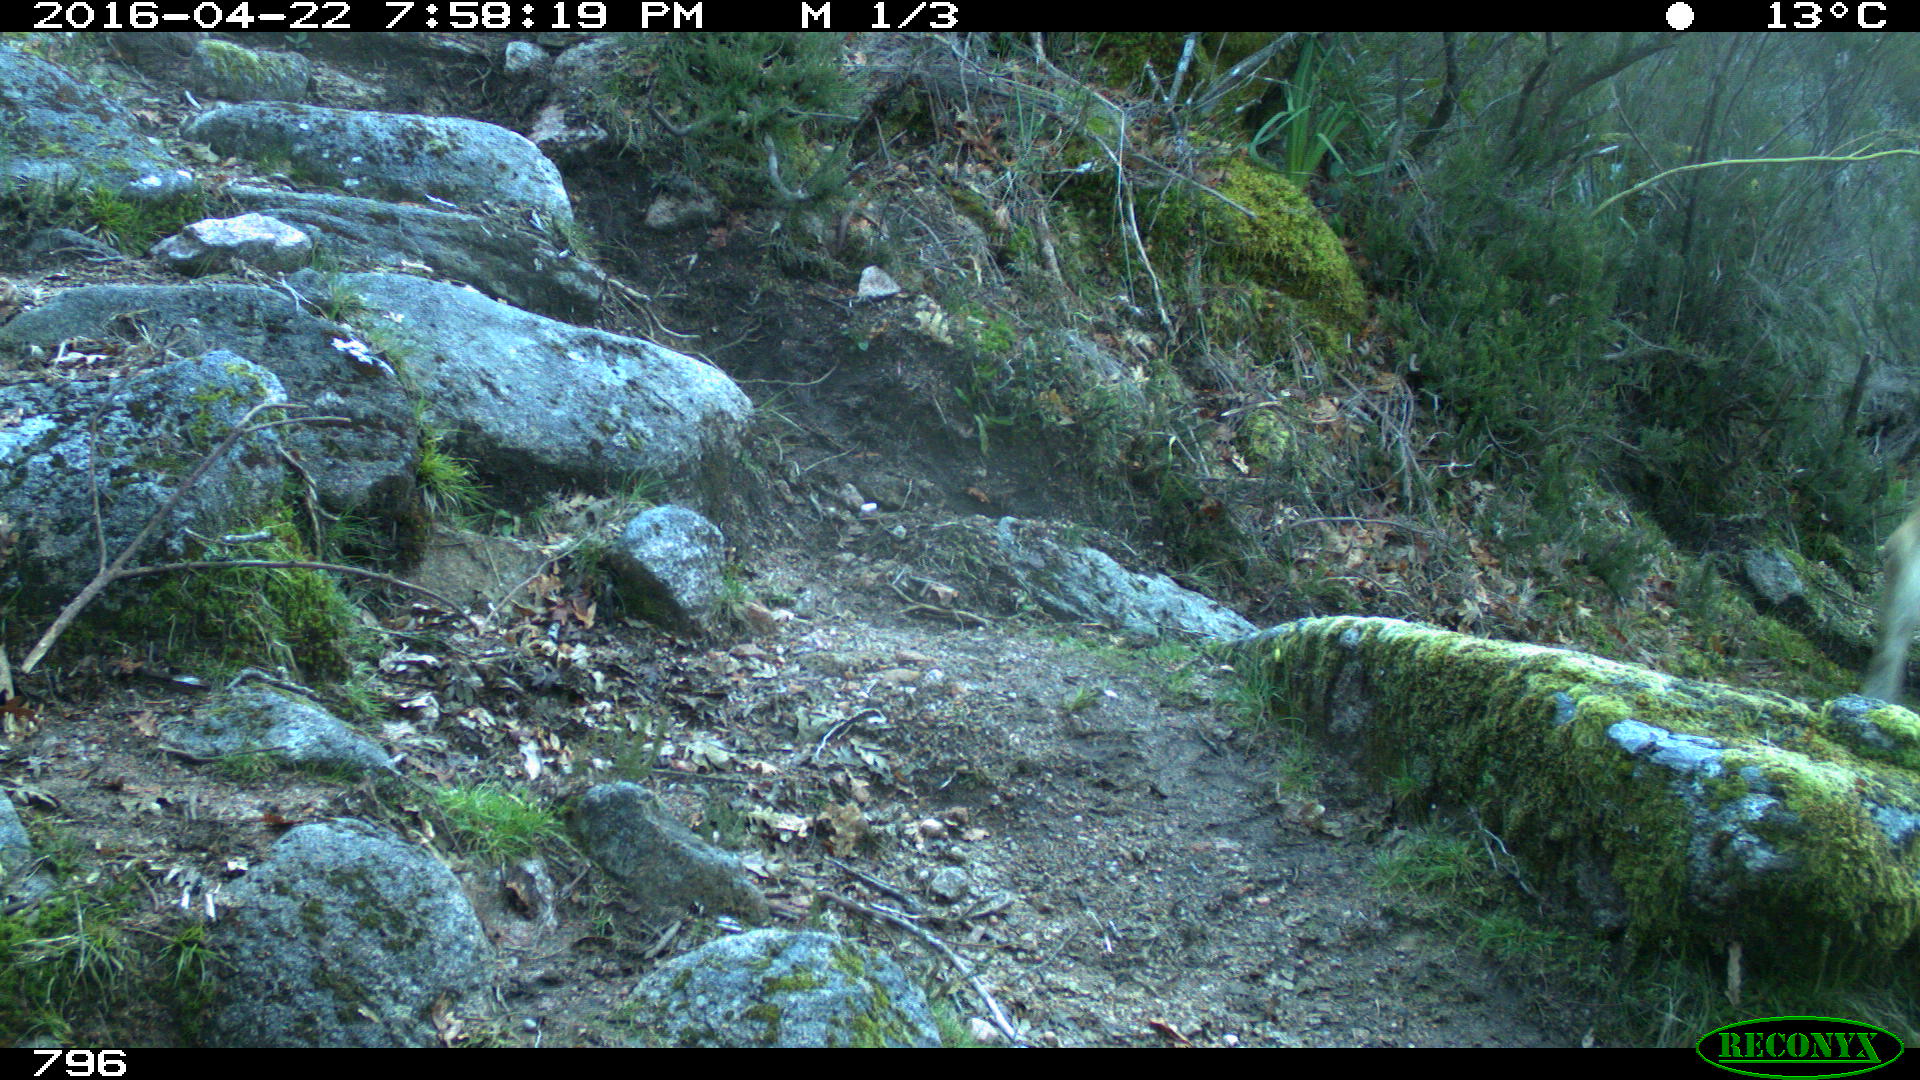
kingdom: Animalia
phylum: Chordata
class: Mammalia
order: Artiodactyla
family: Bovidae
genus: Bos
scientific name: Bos taurus
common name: Domesticated cattle
